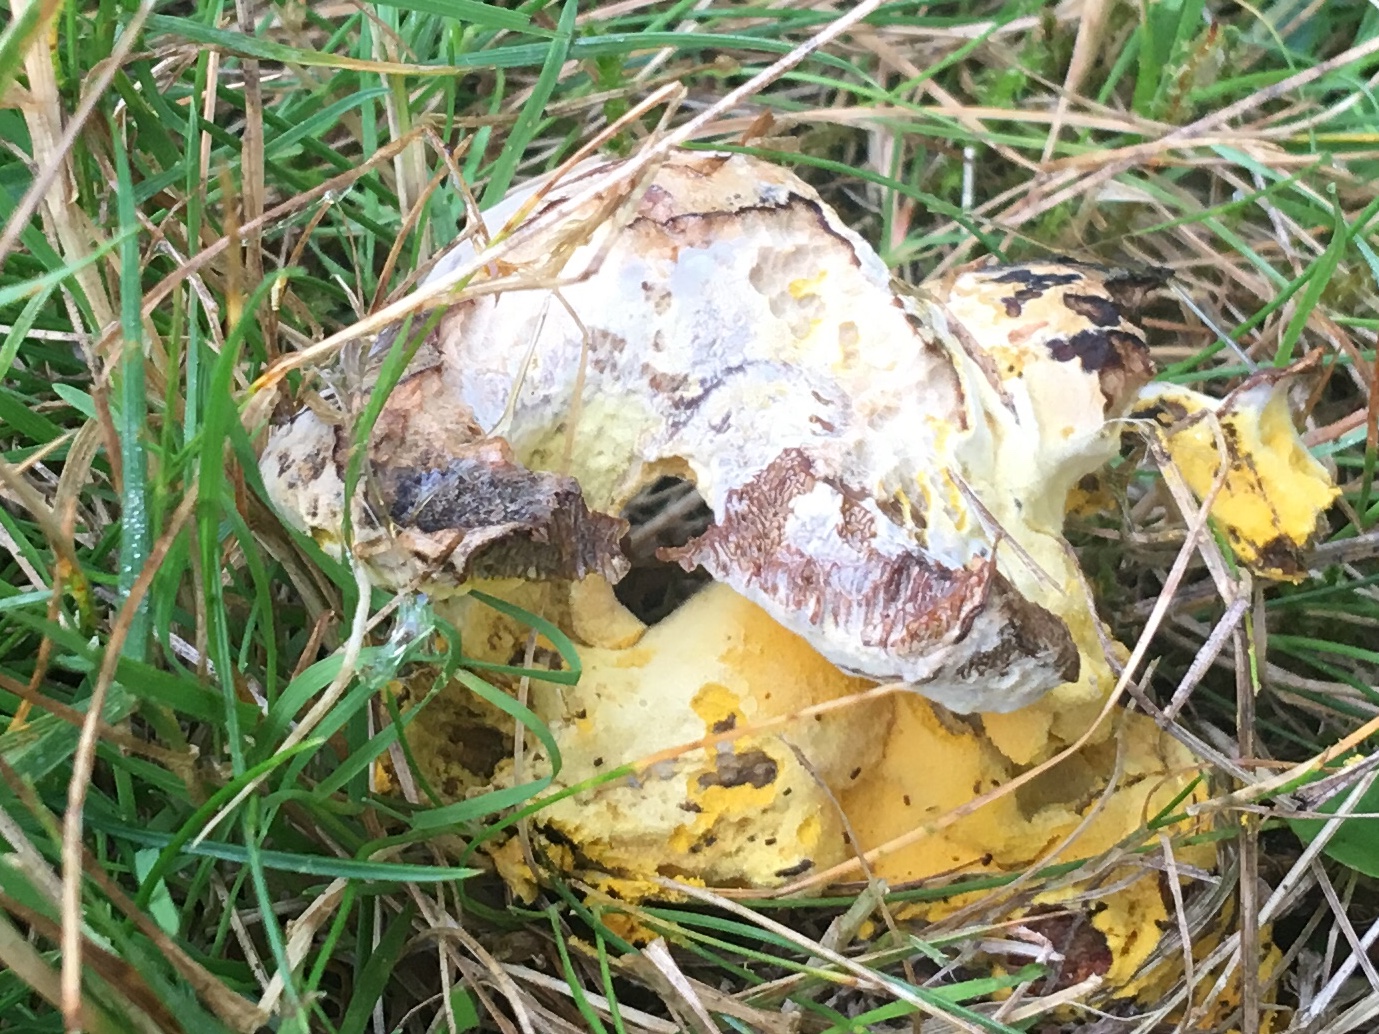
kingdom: Fungi
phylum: Ascomycota
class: Sordariomycetes
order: Hypocreales
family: Hypocreaceae
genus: Hypomyces
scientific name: Hypomyces microspermus
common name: dværgrørhat-snylteskorpe
